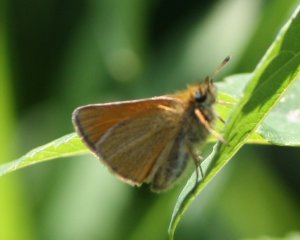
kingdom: Animalia
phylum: Arthropoda
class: Insecta
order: Lepidoptera
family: Hesperiidae
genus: Thymelicus
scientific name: Thymelicus lineola
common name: European Skipper
